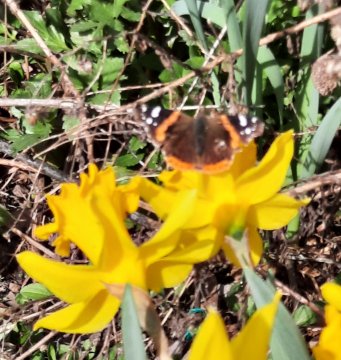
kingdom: Animalia
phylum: Arthropoda
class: Insecta
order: Lepidoptera
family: Nymphalidae
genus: Vanessa
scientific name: Vanessa atalanta
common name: Red Admiral
